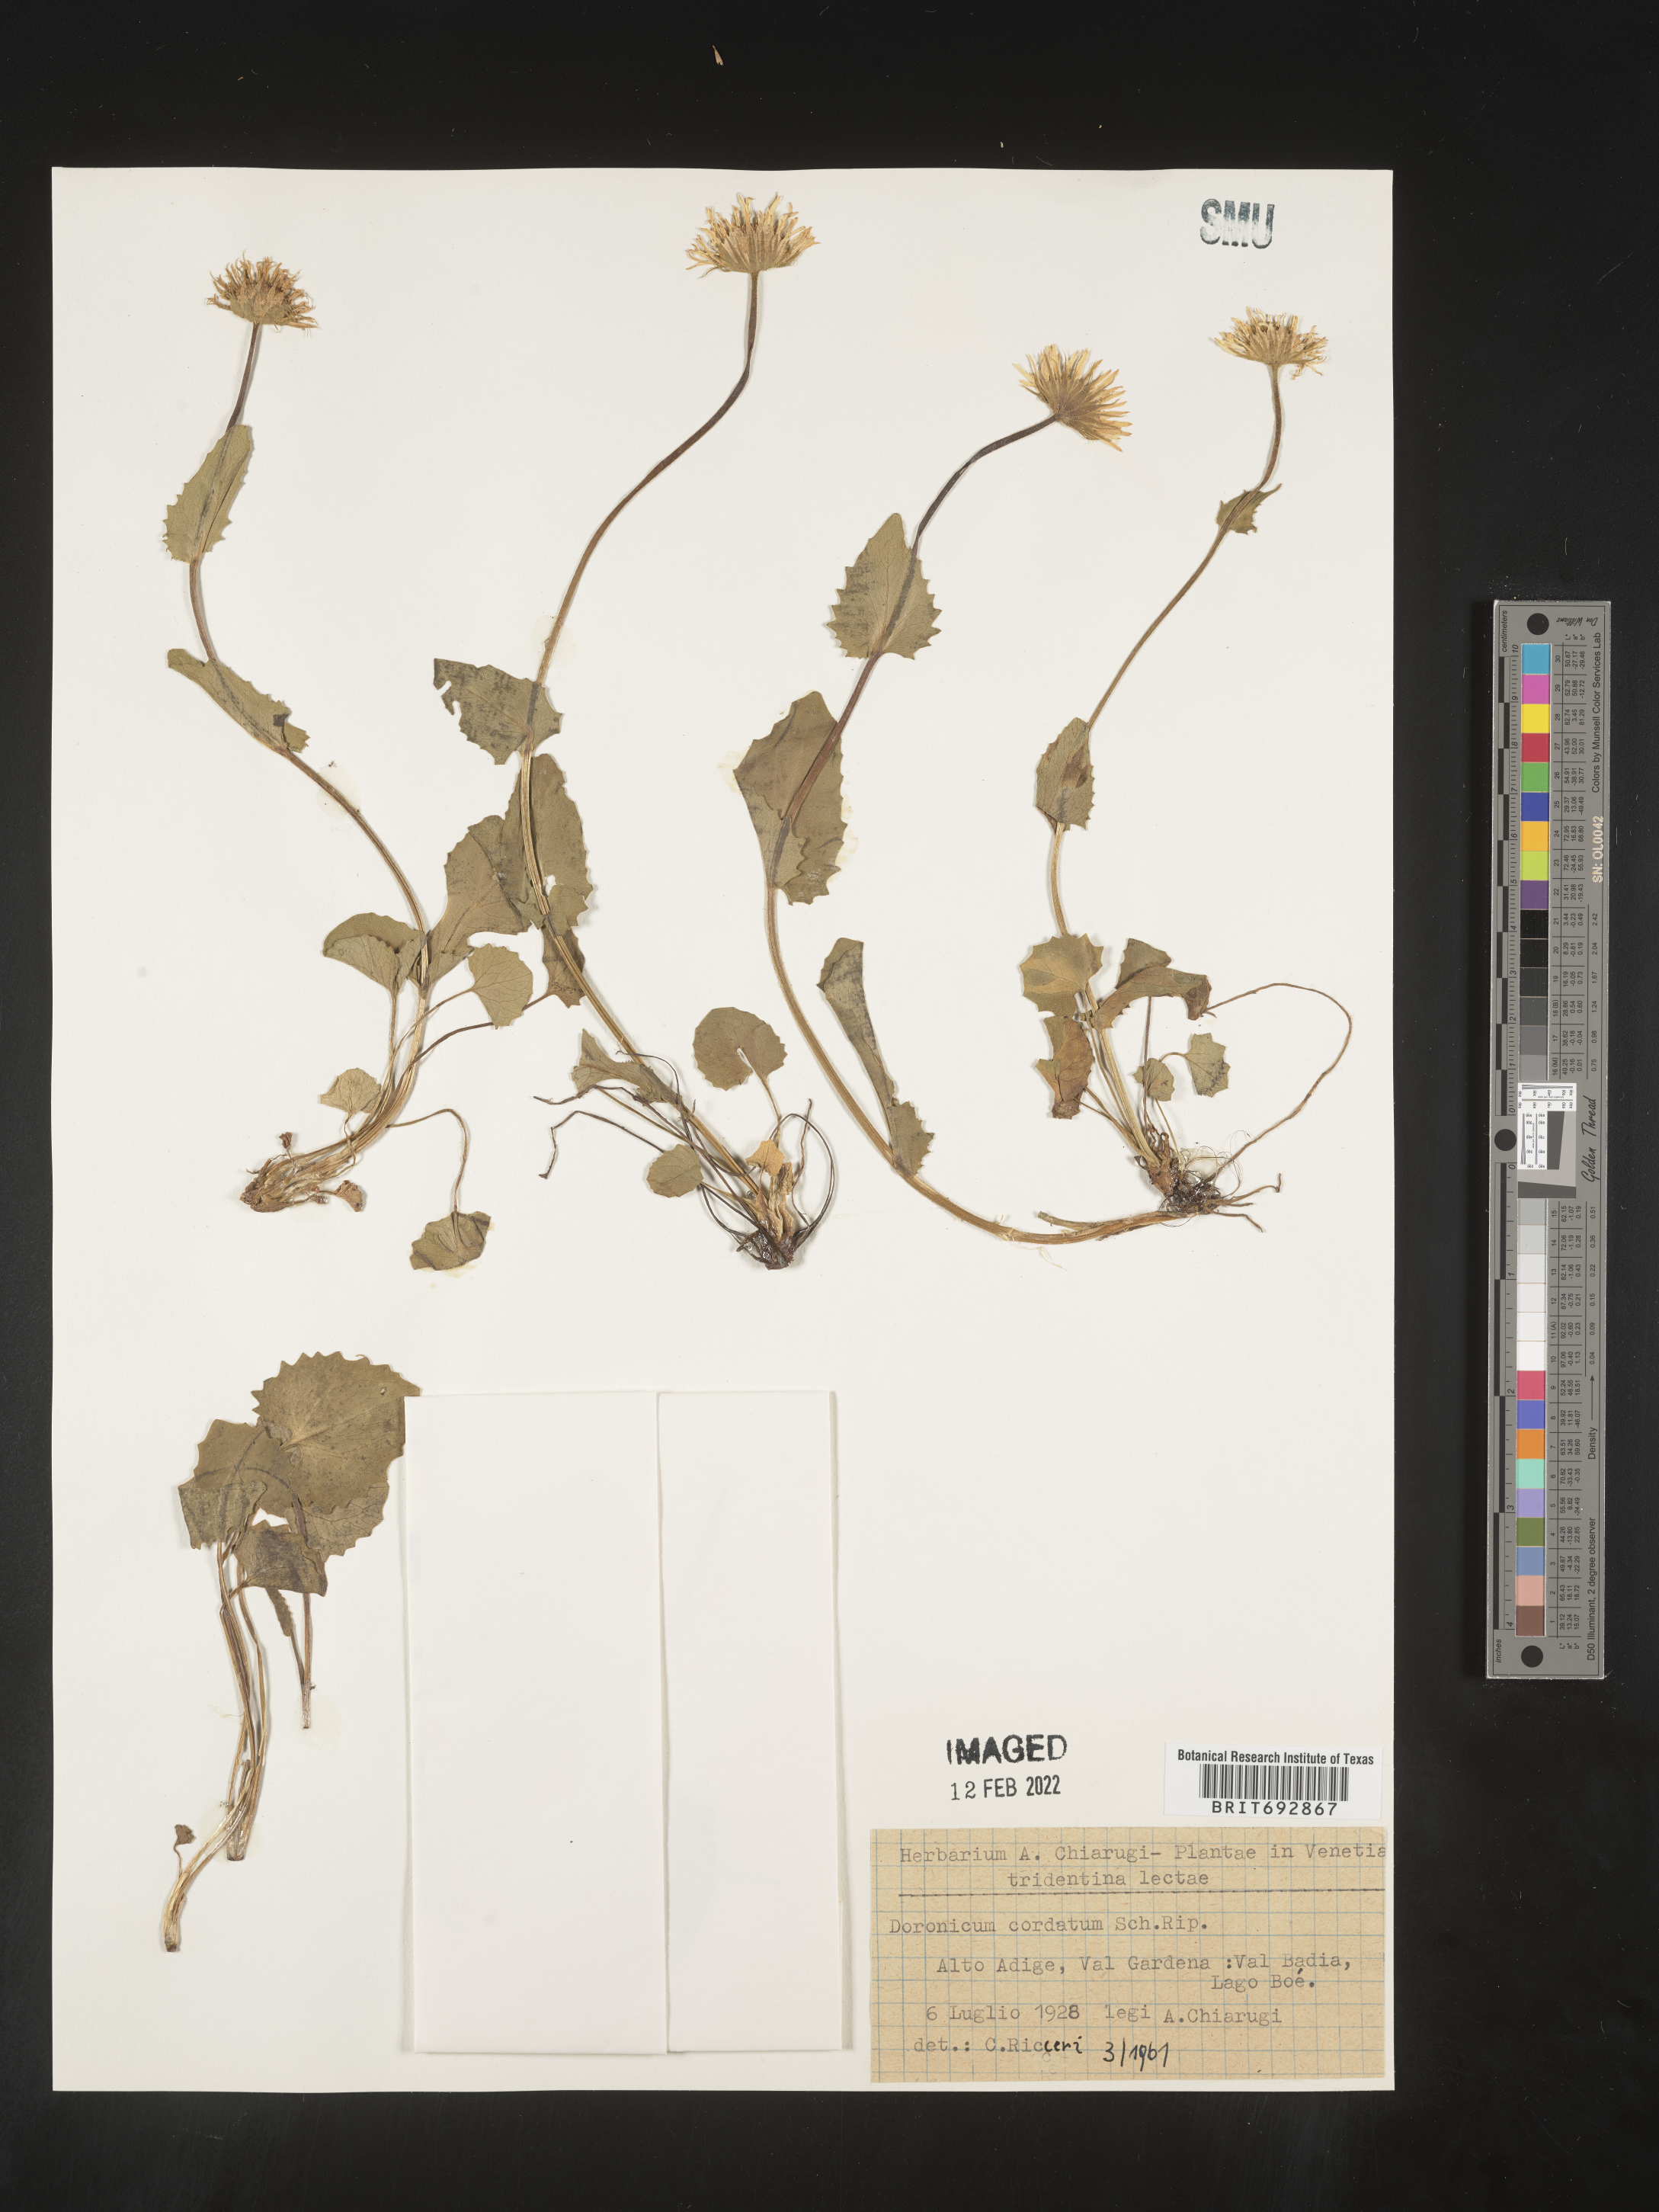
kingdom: Plantae
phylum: Tracheophyta
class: Magnoliopsida
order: Asterales
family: Asteraceae
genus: Doronicum
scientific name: Doronicum
